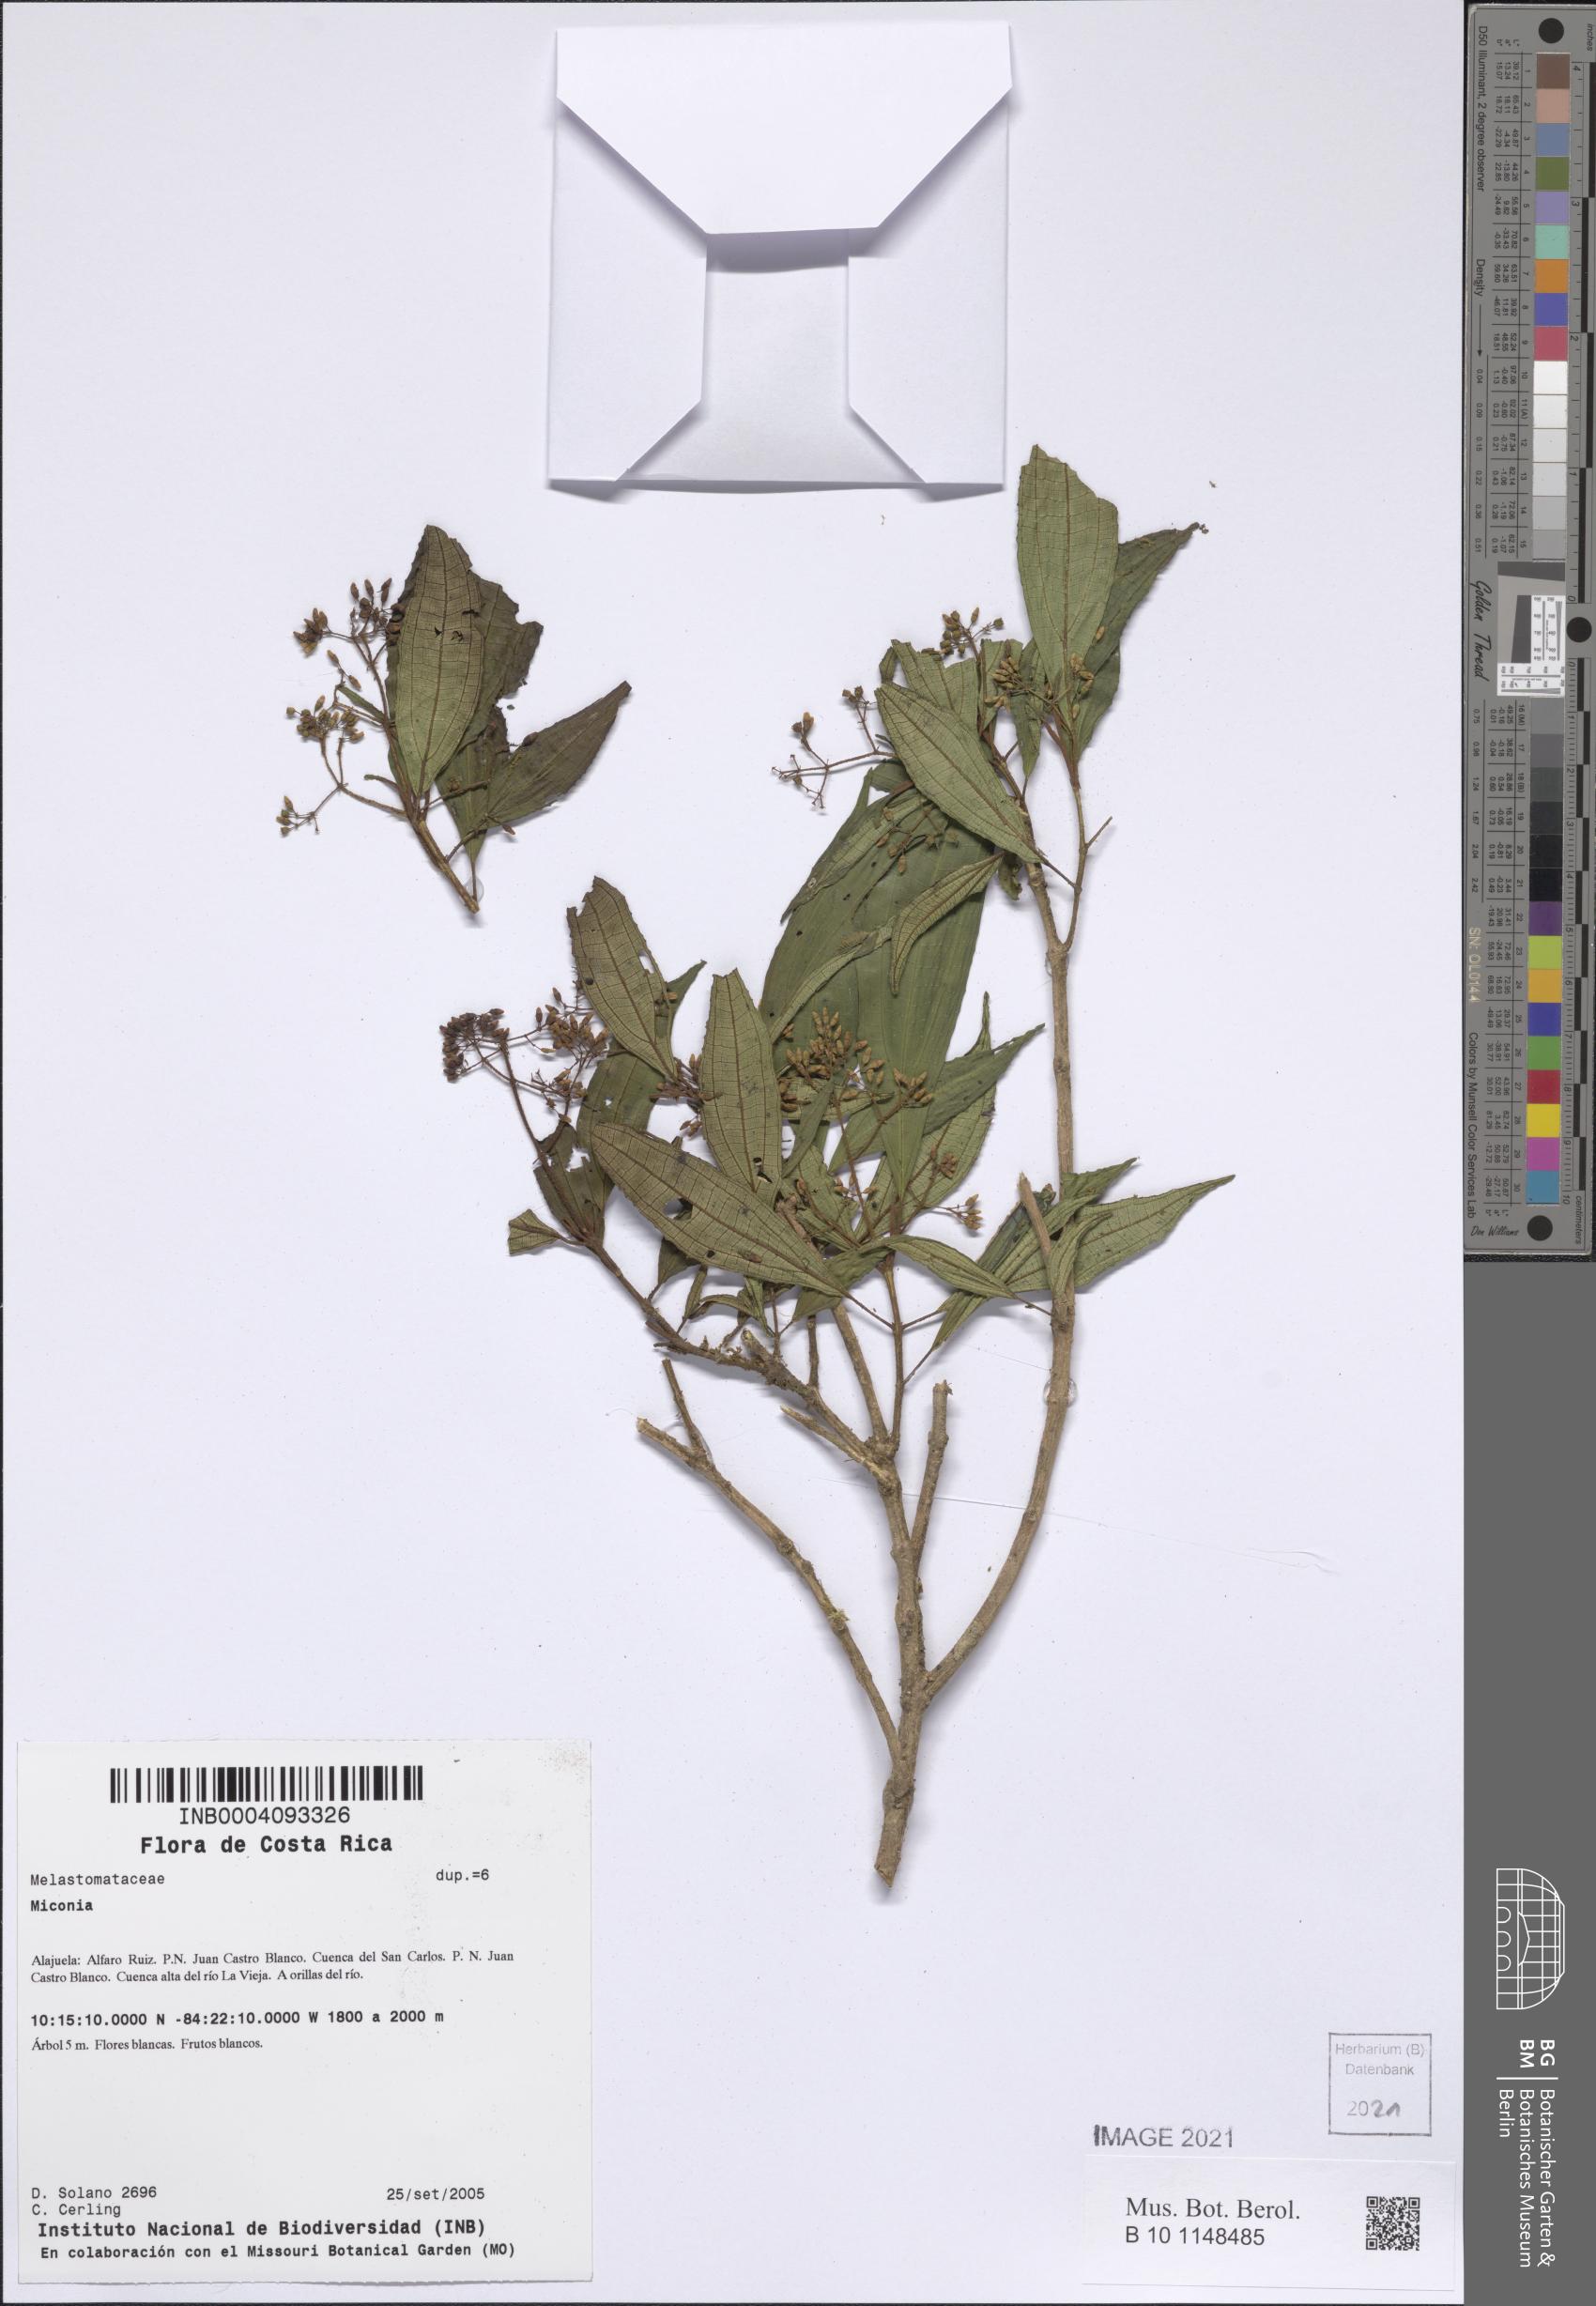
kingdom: Plantae
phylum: Tracheophyta
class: Magnoliopsida
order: Myrtales
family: Melastomataceae
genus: Miconia
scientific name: Miconia
